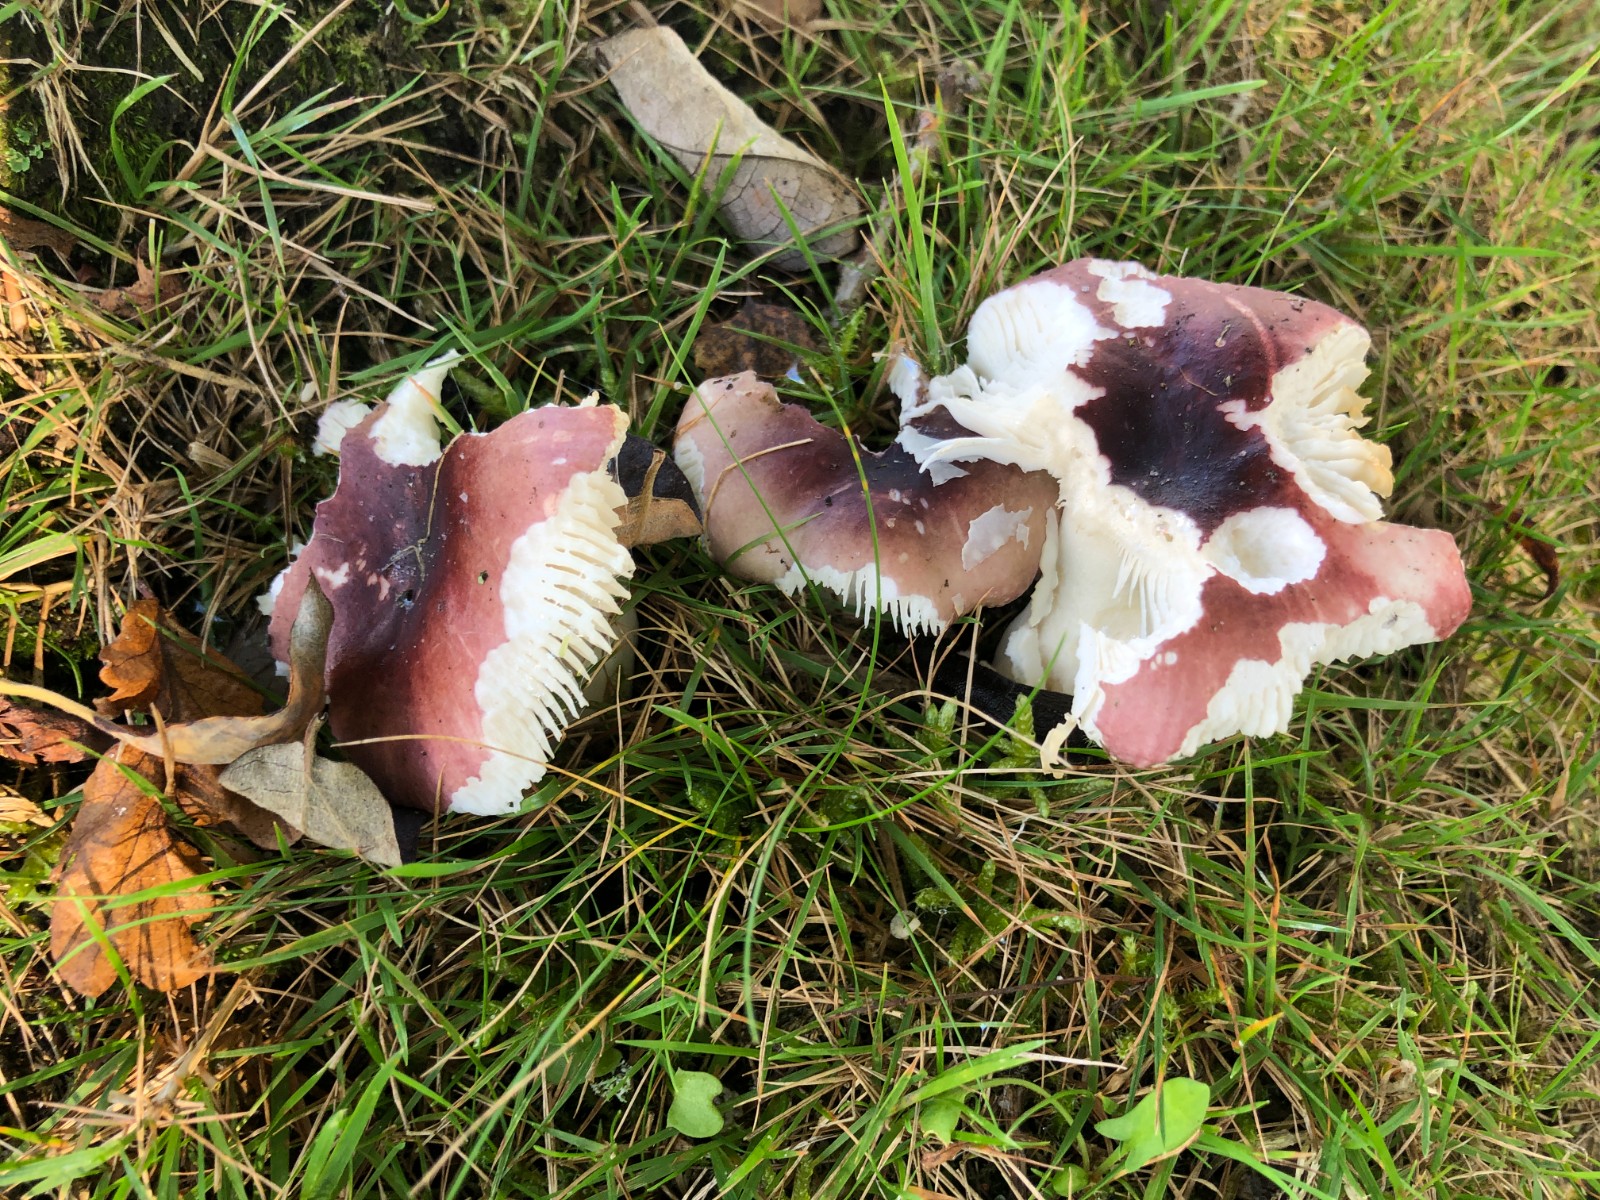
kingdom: Fungi
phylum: Basidiomycota
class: Agaricomycetes
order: Russulales
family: Russulaceae
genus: Russula
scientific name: Russula fragilis
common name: savbladet skørhat
